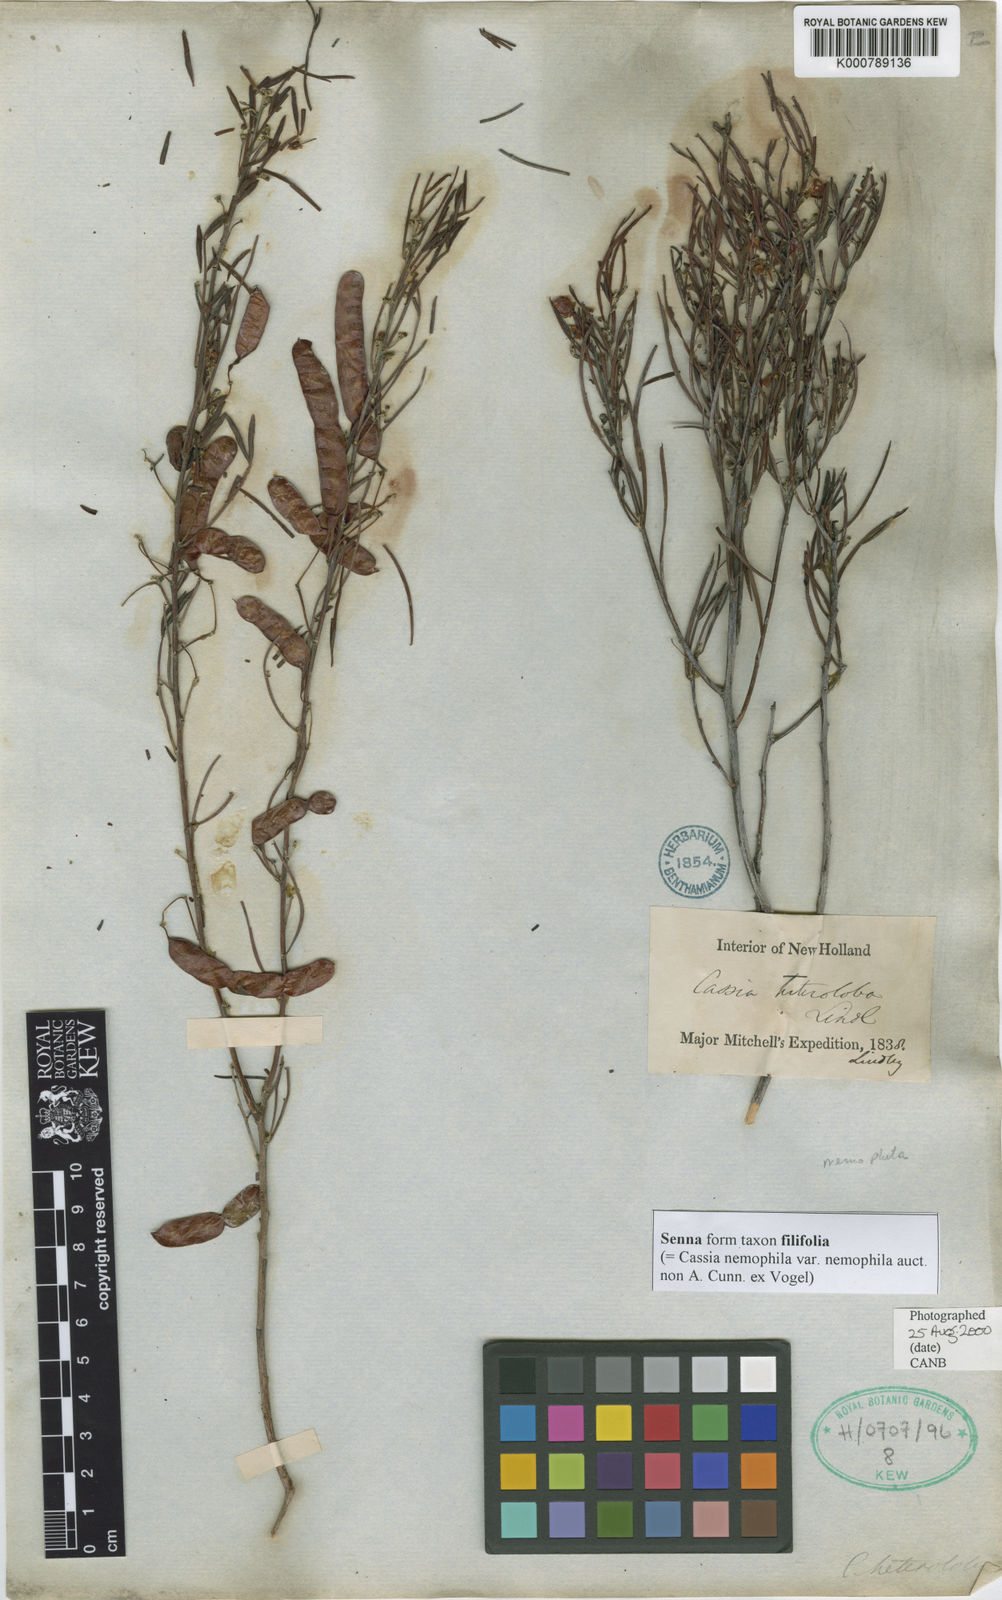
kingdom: Plantae
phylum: Tracheophyta
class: Magnoliopsida
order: Fabales
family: Fabaceae
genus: Senna
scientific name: Senna
